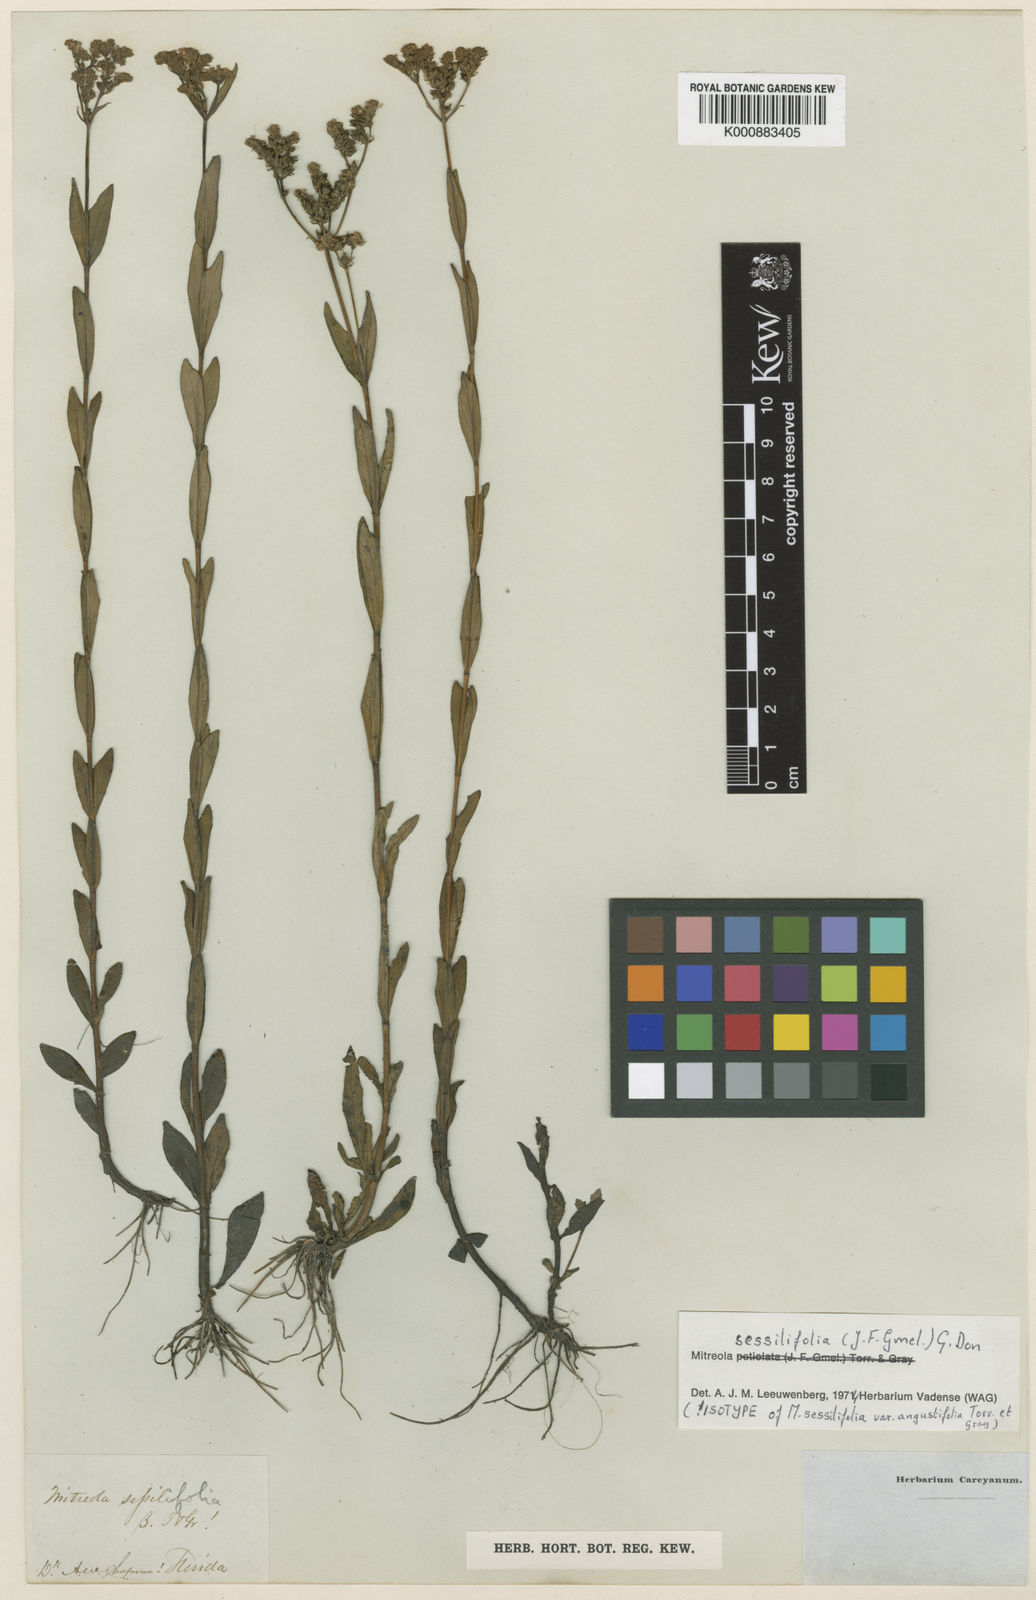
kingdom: Plantae
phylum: Tracheophyta
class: Magnoliopsida
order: Gentianales
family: Loganiaceae
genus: Mitreola
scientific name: Mitreola sessilifolia
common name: Swamp hornpod
